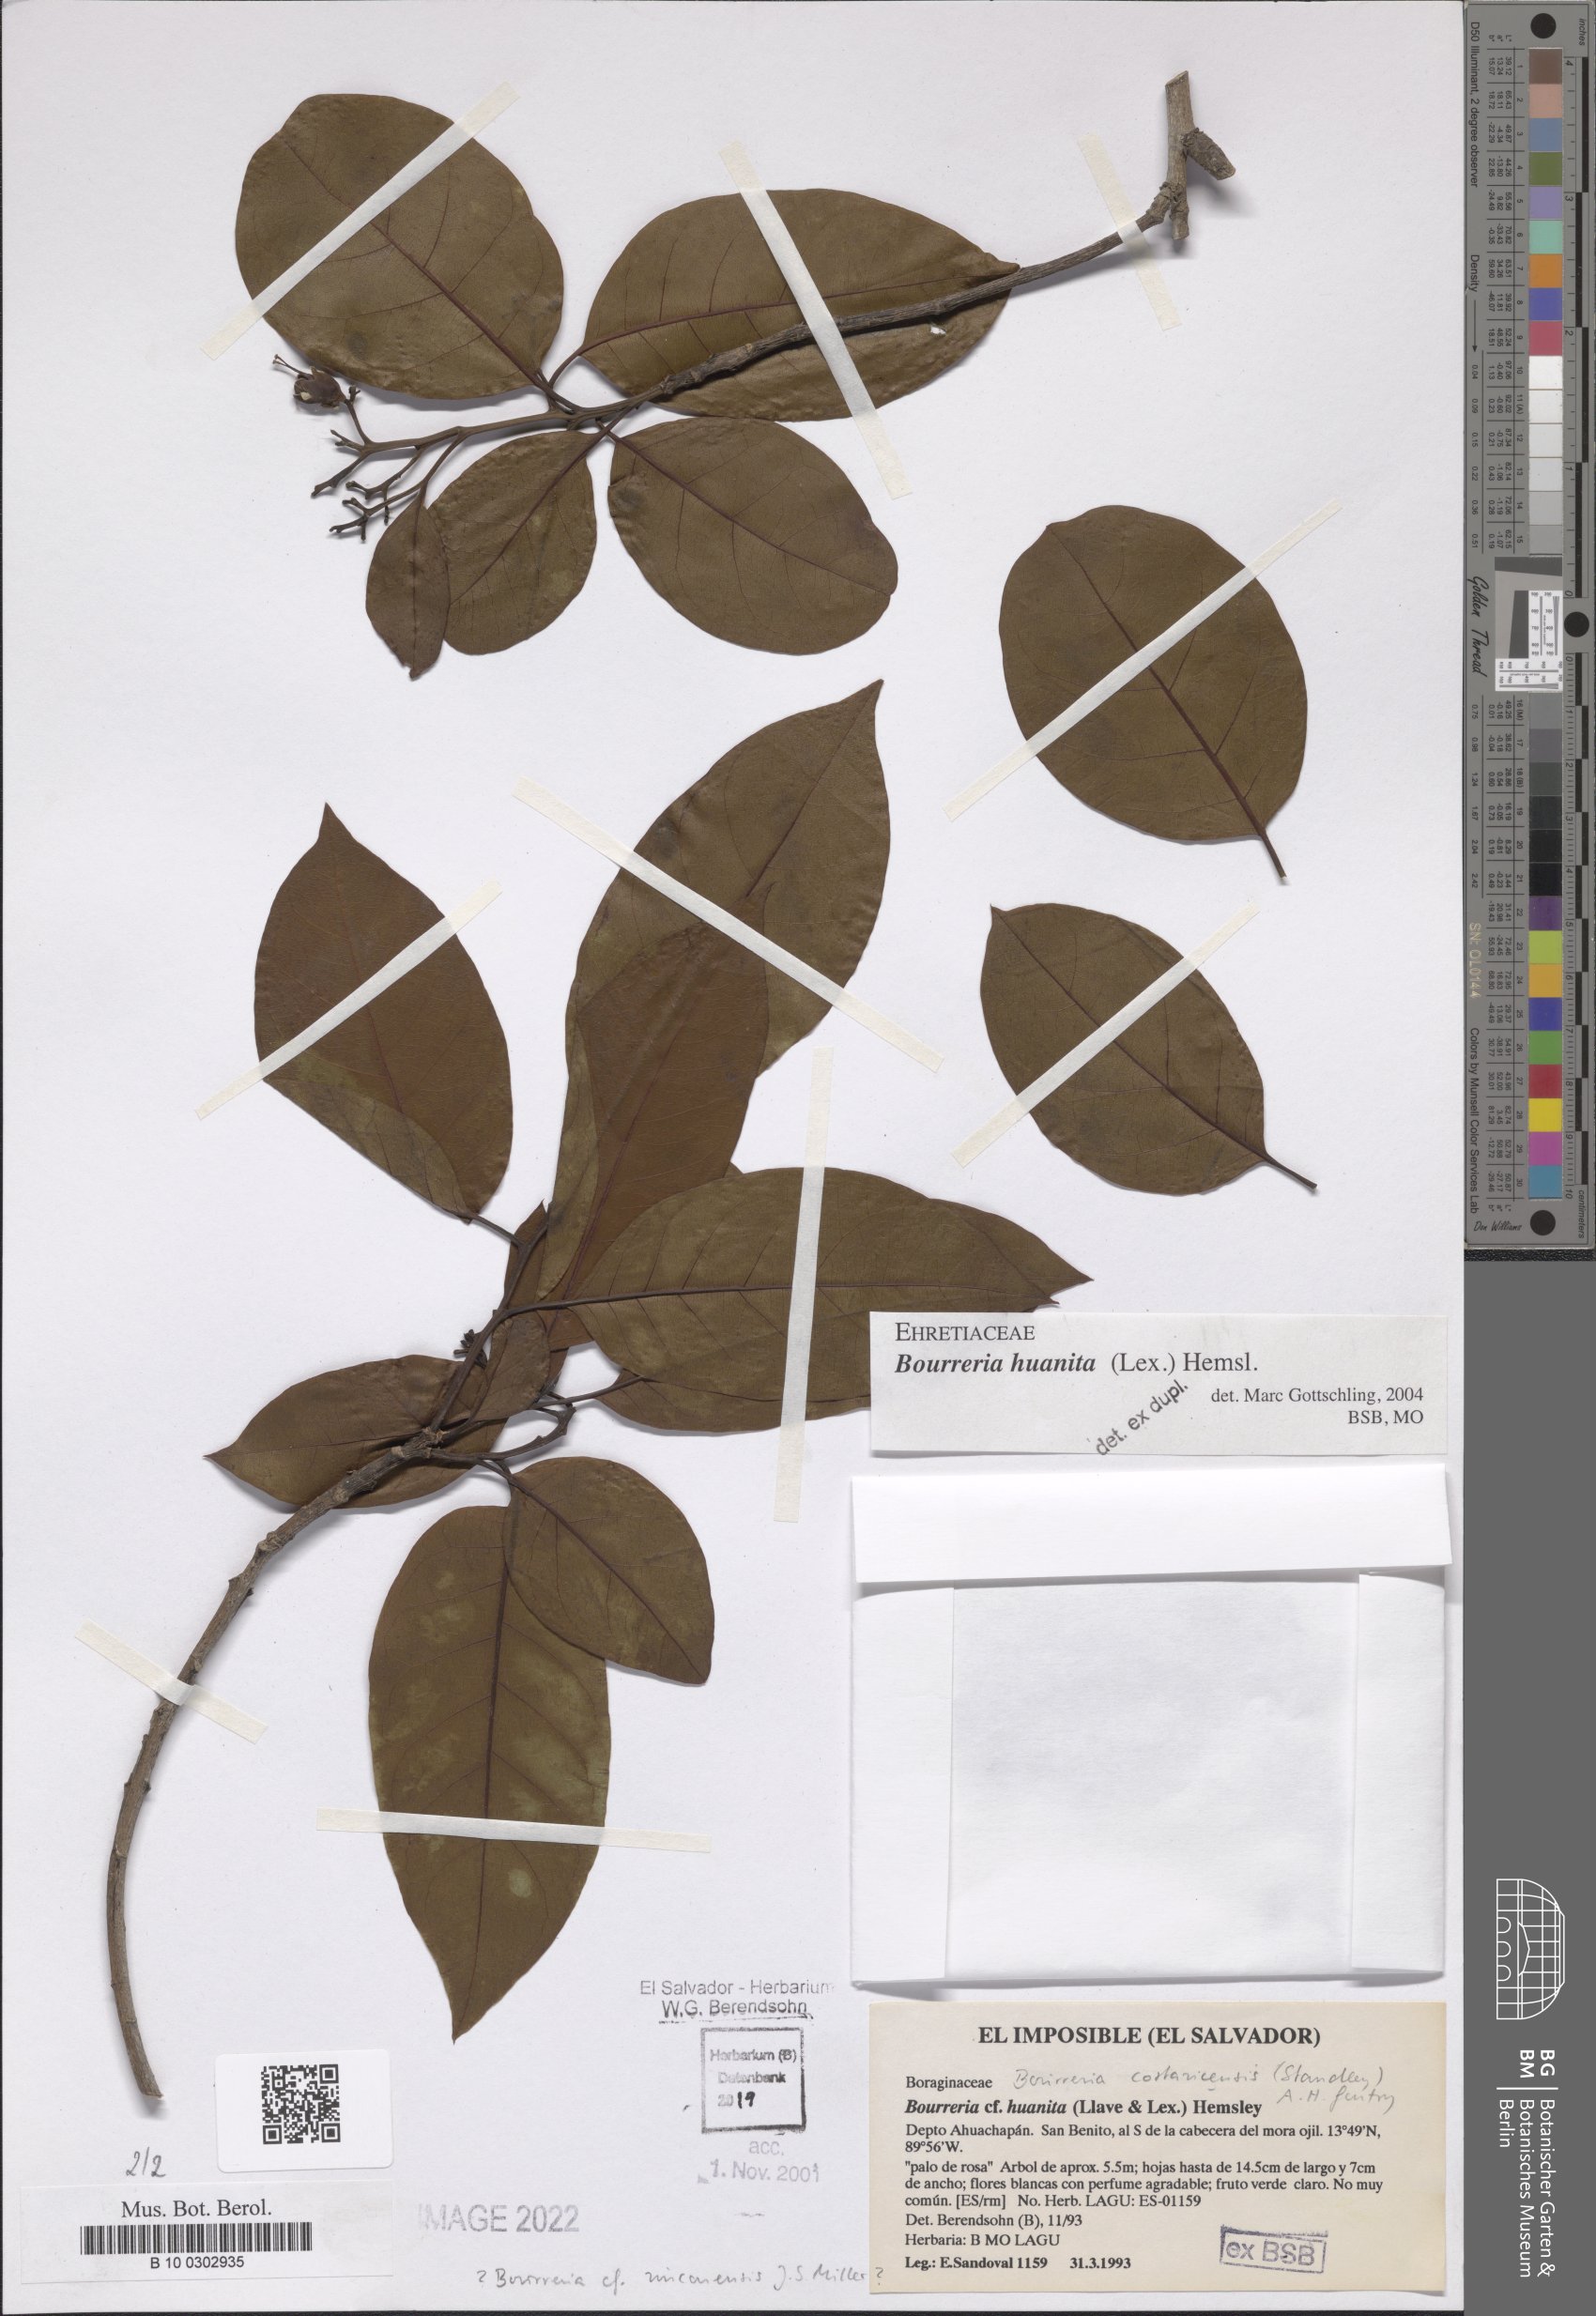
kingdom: Plantae
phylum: Tracheophyta
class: Magnoliopsida
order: Boraginales
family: Ehretiaceae
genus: Bourreria
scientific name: Bourreria huanita
